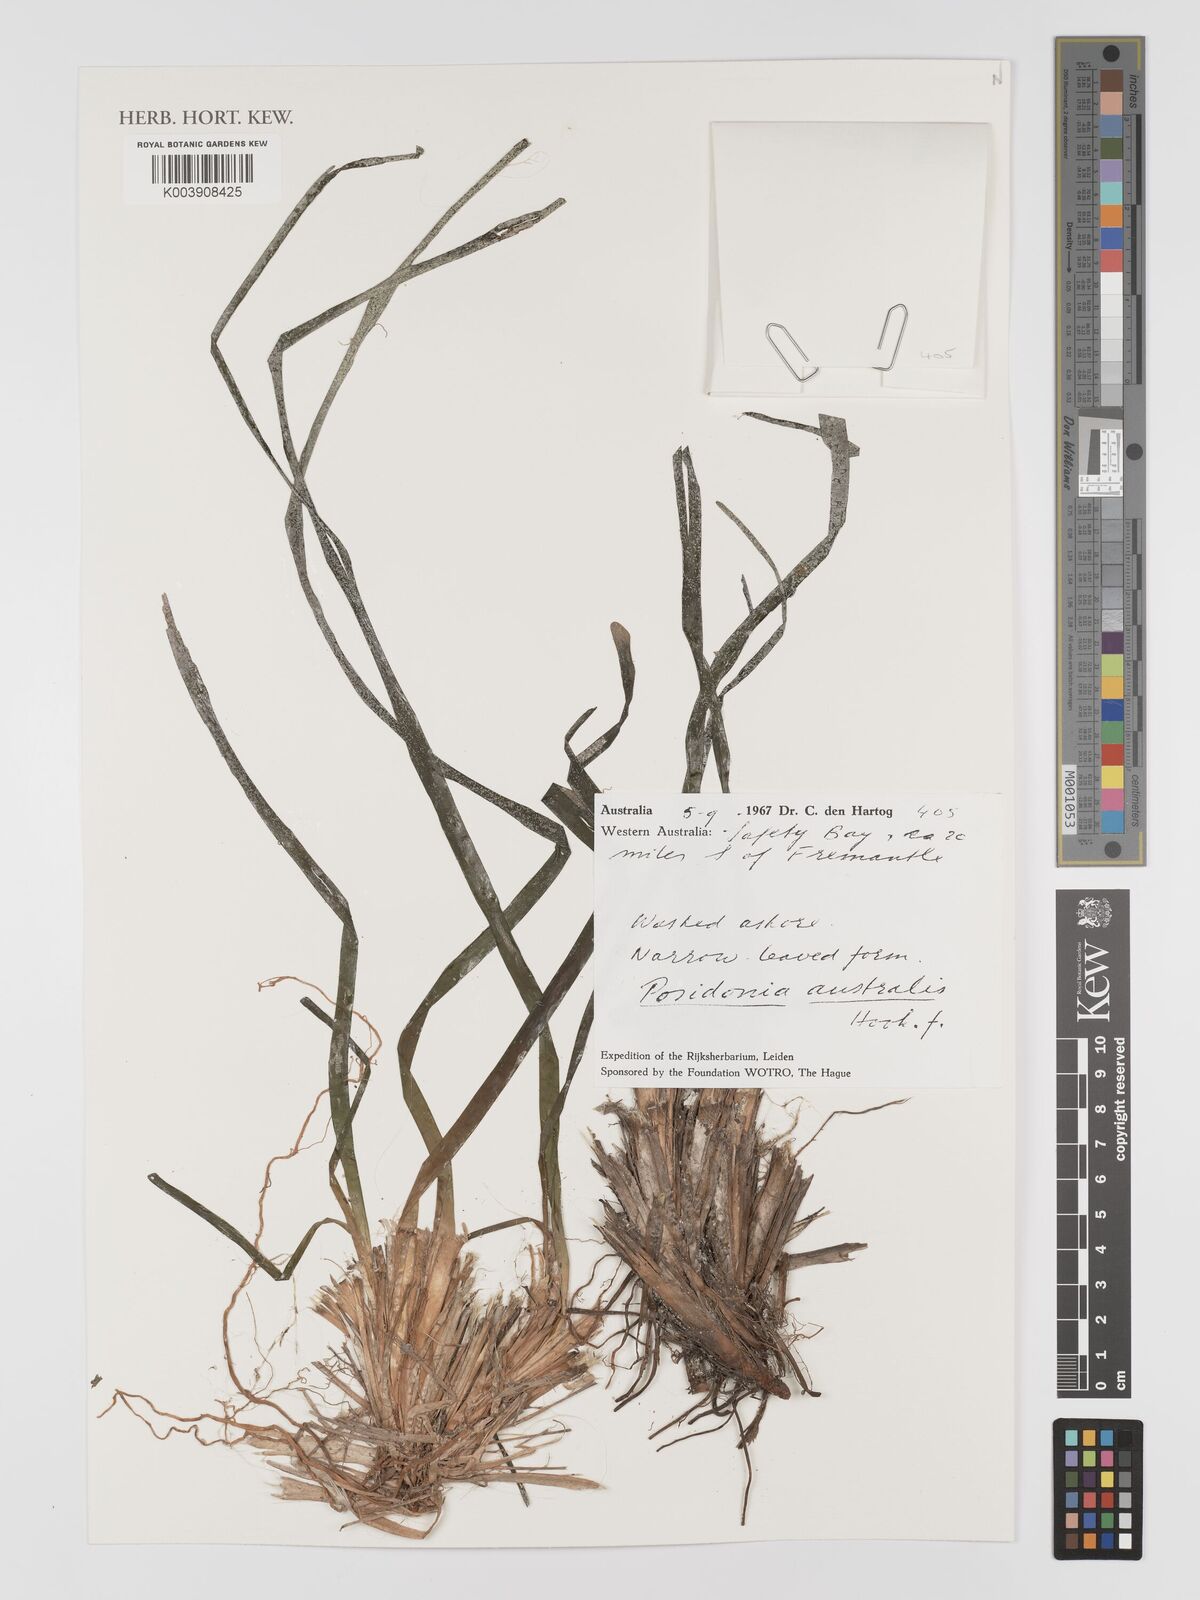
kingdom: Plantae
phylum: Tracheophyta
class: Liliopsida
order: Alismatales
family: Posidoniaceae
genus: Posidonia
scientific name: Posidonia australis
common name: Species code: pa
